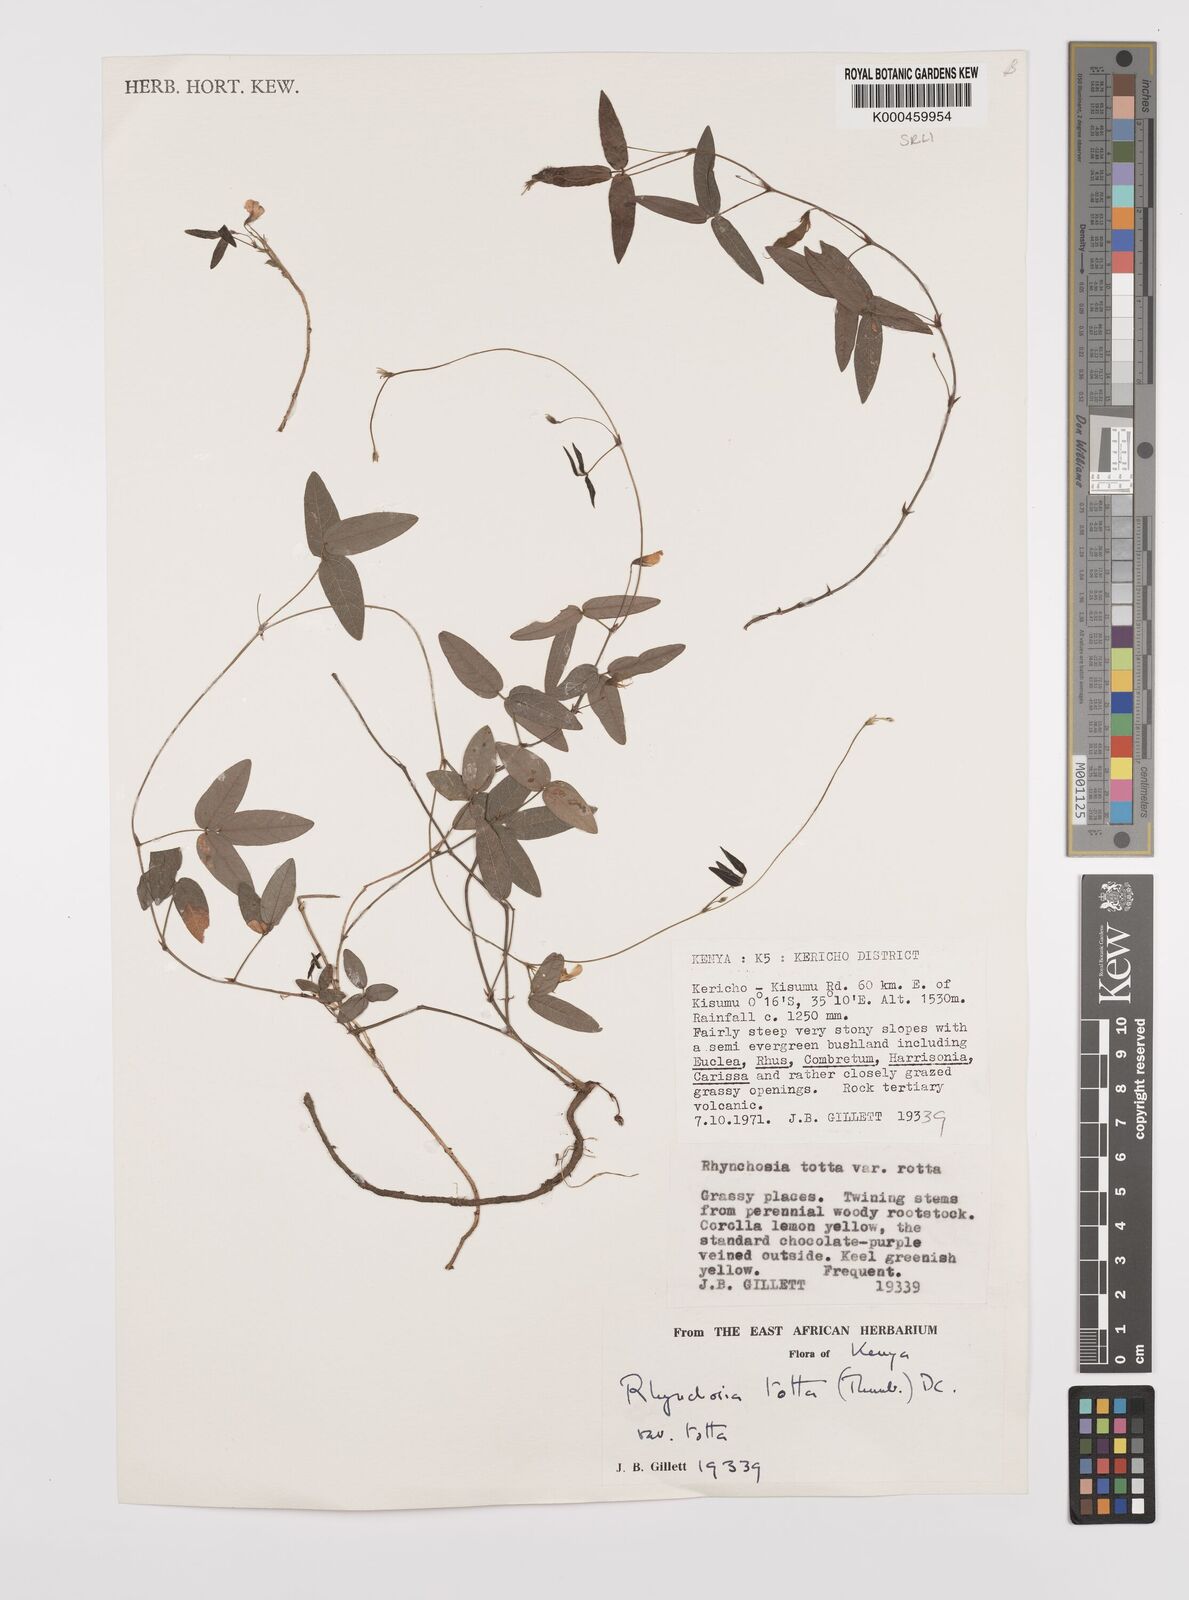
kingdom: Plantae
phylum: Tracheophyta
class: Magnoliopsida
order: Fabales
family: Fabaceae
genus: Rhynchosia
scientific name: Rhynchosia totta
